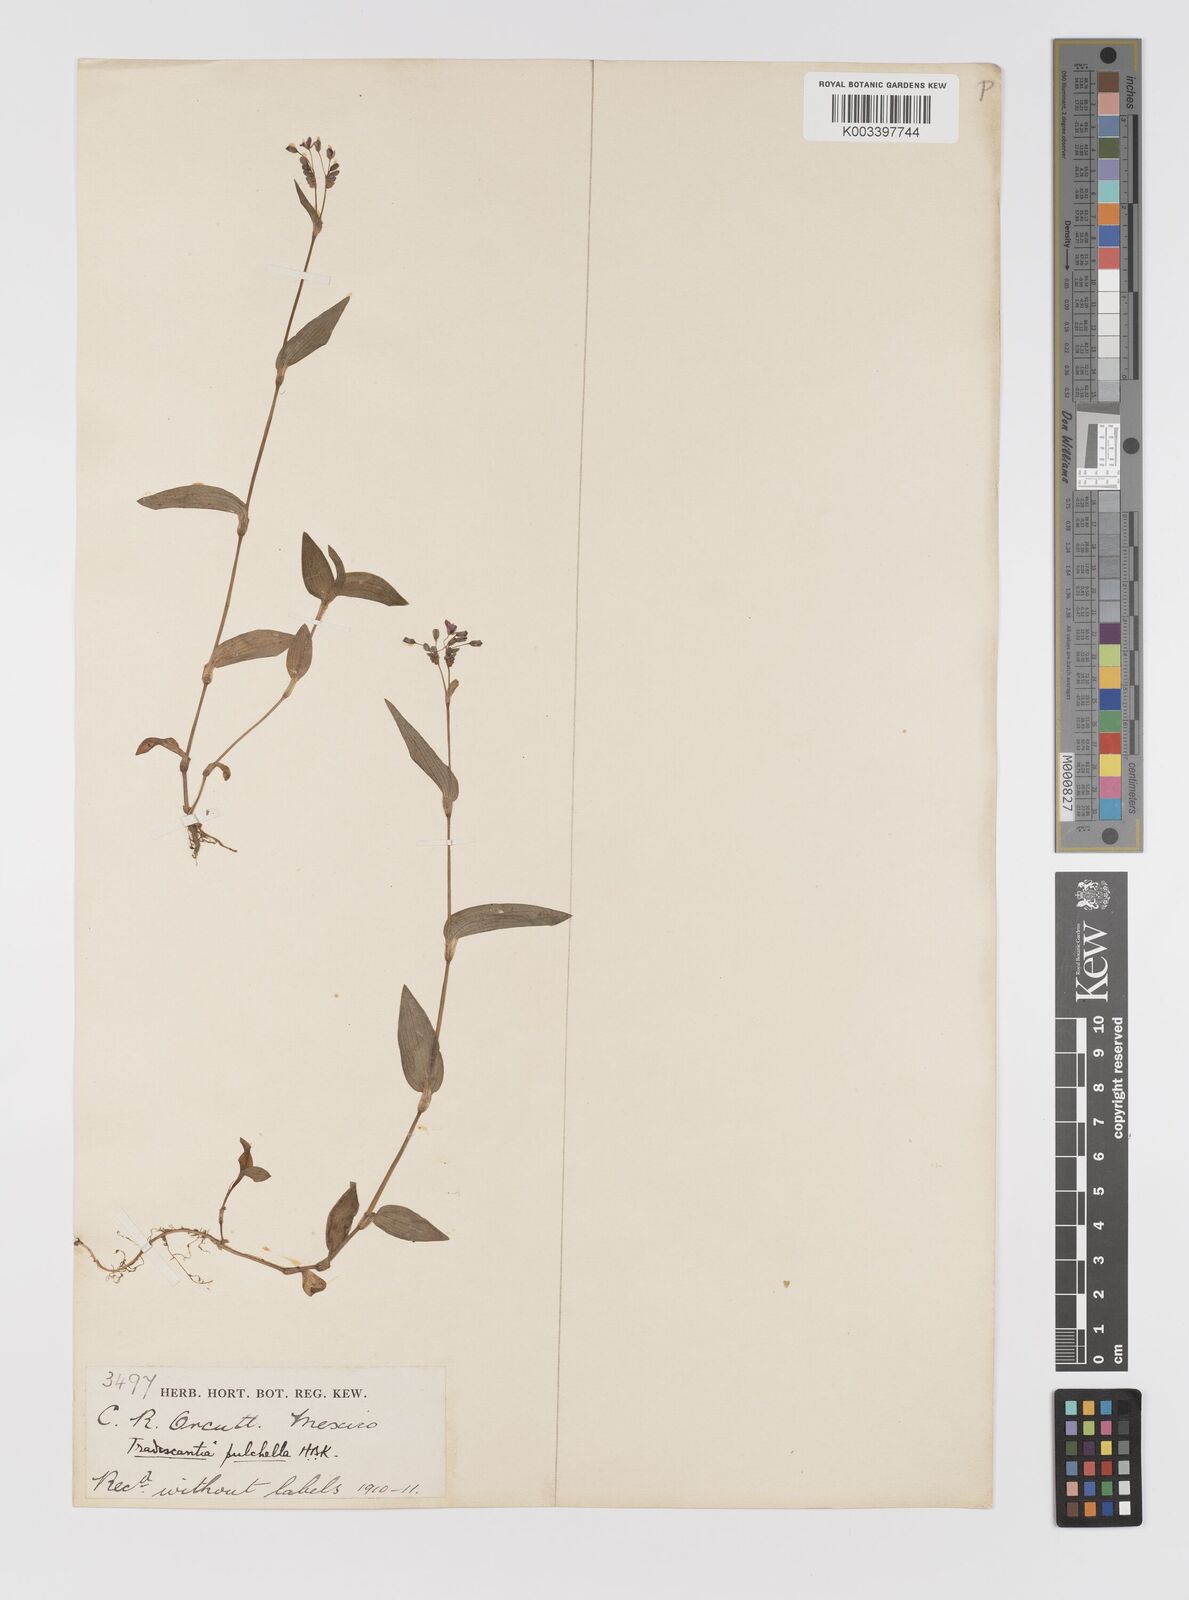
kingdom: Plantae
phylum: Tracheophyta
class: Liliopsida
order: Commelinales
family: Commelinaceae
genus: Gibasis
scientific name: Gibasis pulchella
